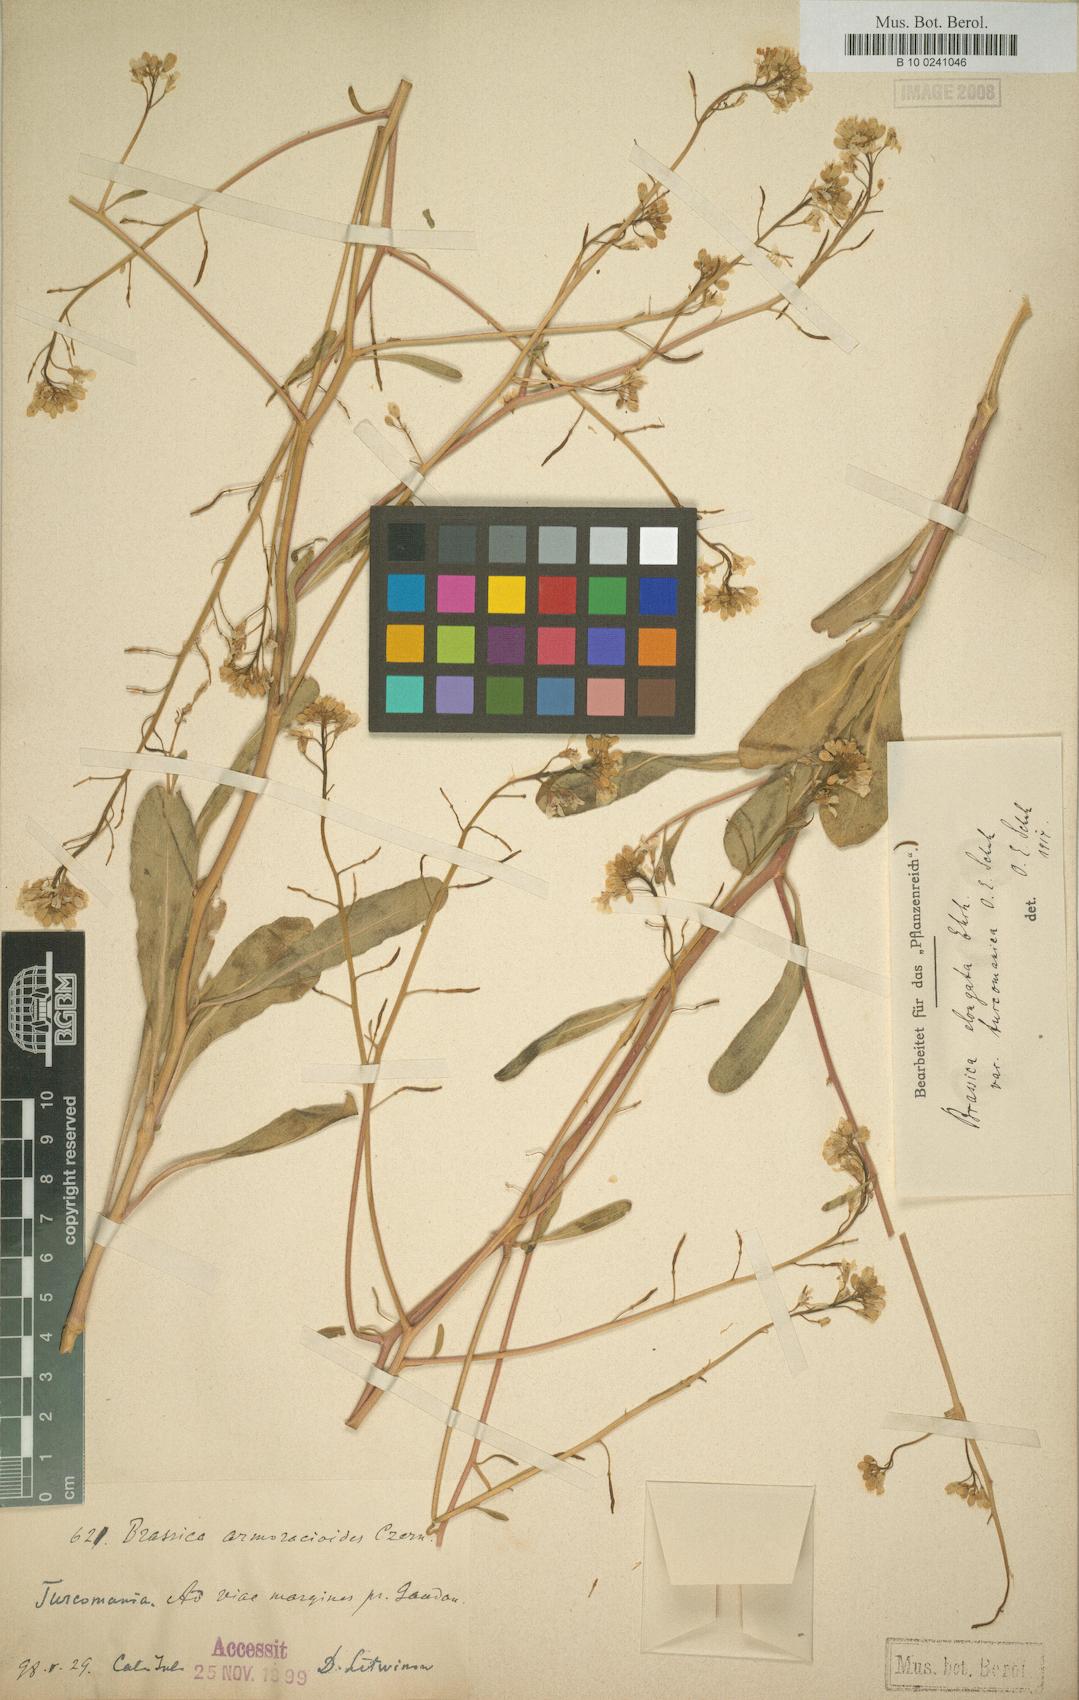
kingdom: Plantae
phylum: Tracheophyta
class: Magnoliopsida
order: Brassicales
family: Brassicaceae
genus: Brassica
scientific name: Brassica elongata
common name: Long-stalked rape
